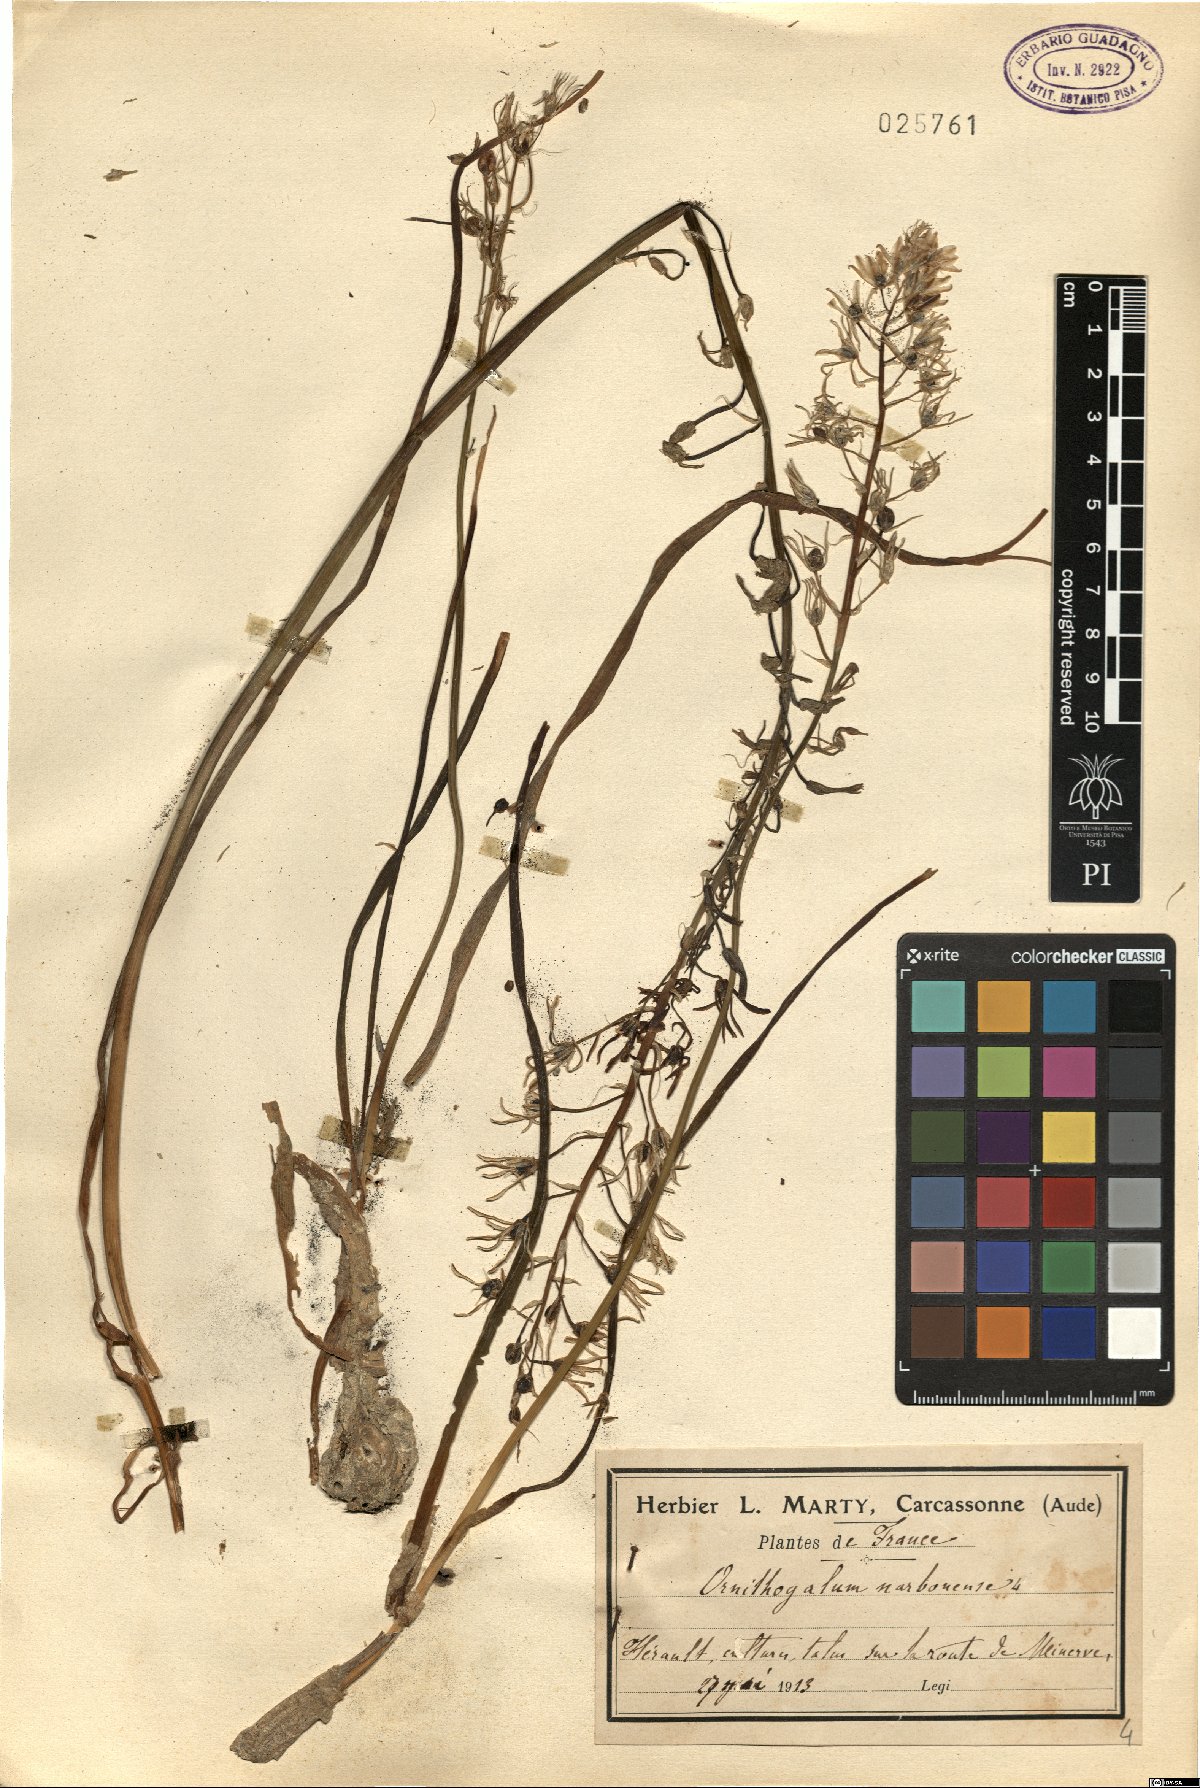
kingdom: Plantae
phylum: Tracheophyta
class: Liliopsida
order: Asparagales
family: Asparagaceae
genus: Ornithogalum
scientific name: Ornithogalum narbonense
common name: Bath-asparagus
